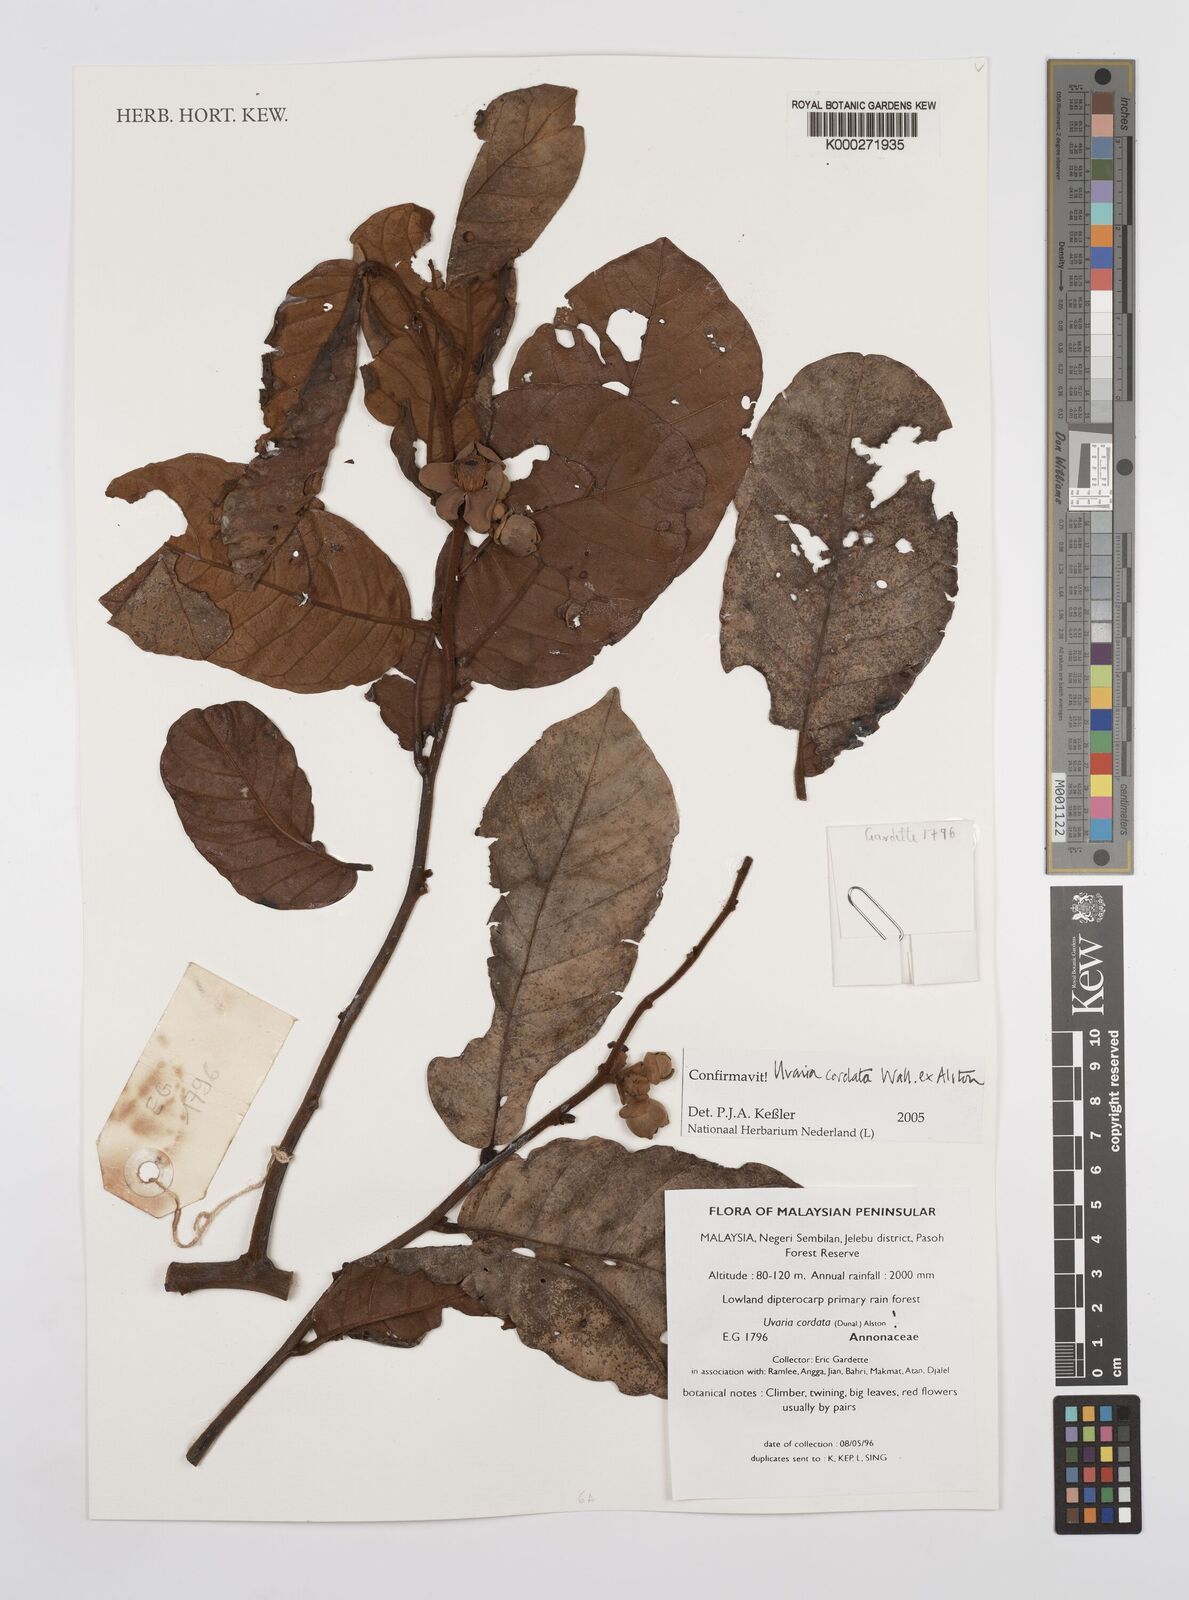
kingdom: Plantae
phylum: Tracheophyta
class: Magnoliopsida
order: Magnoliales
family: Annonaceae
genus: Uvaria
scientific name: Uvaria
